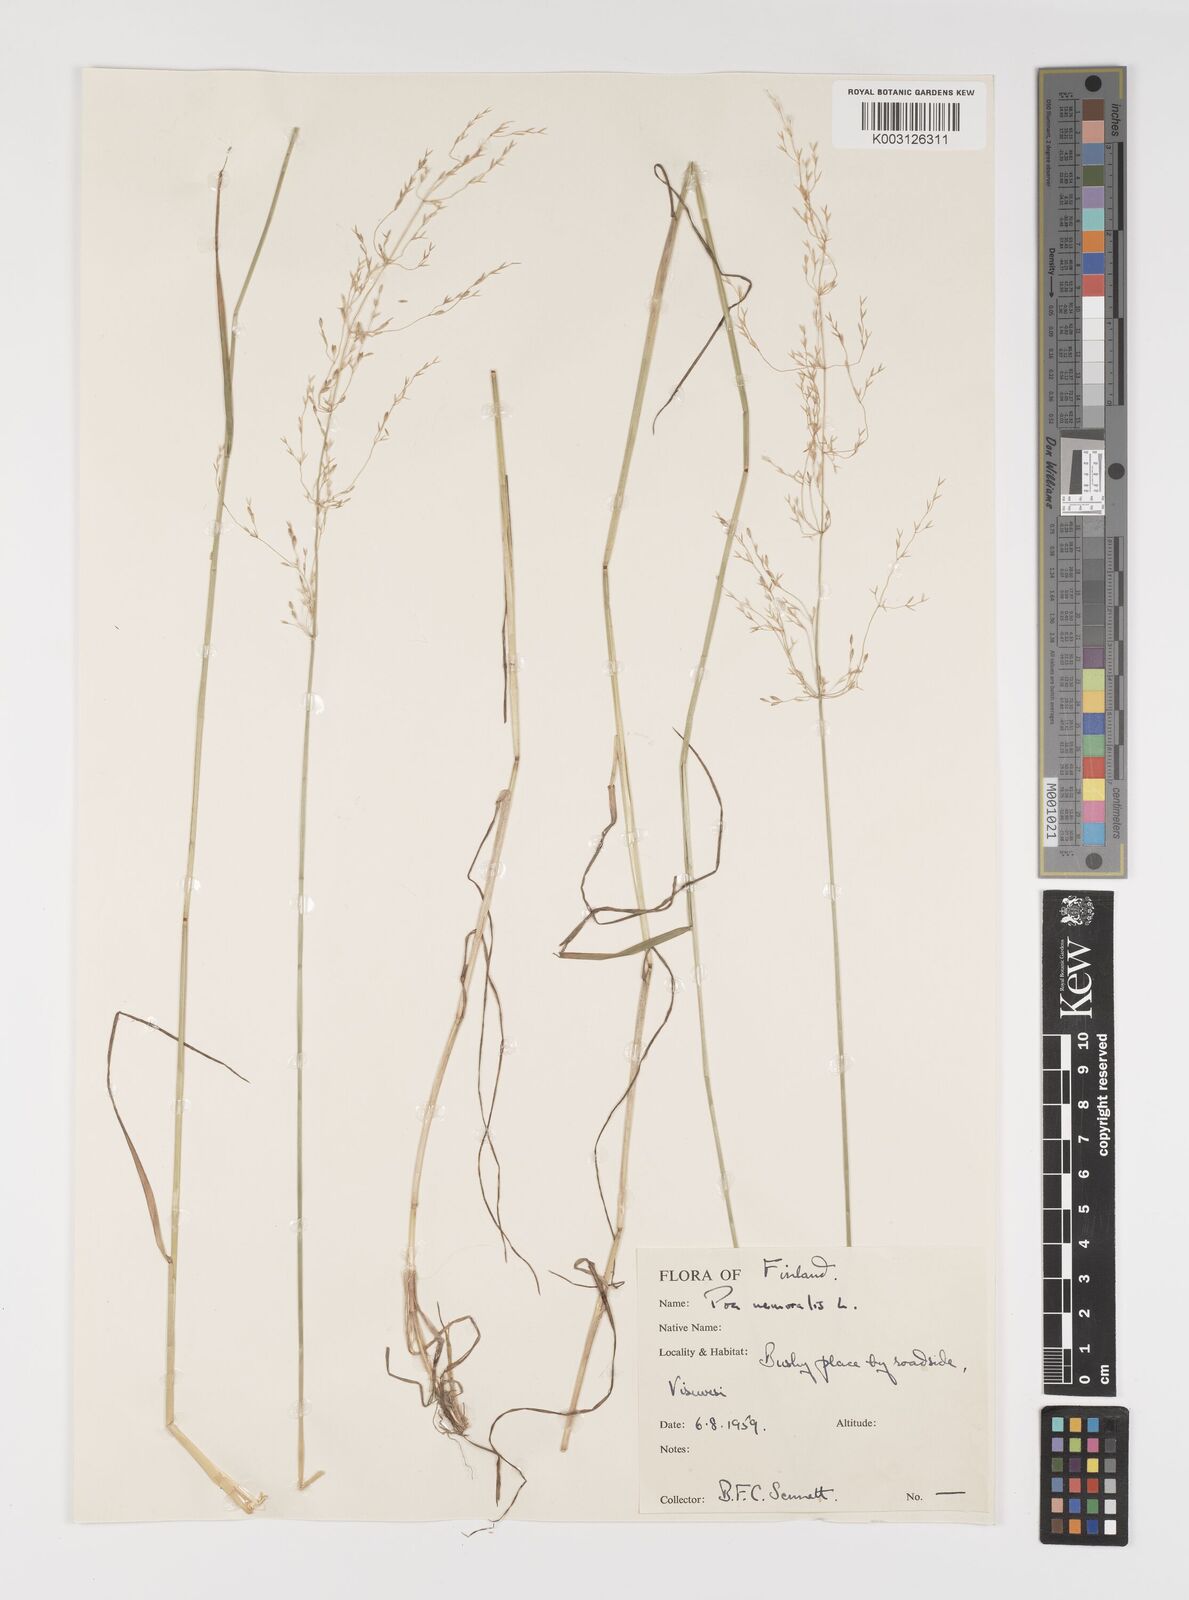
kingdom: Plantae
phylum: Tracheophyta
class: Liliopsida
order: Poales
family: Poaceae
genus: Poa
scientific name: Poa glauca
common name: Glaucous bluegrass
